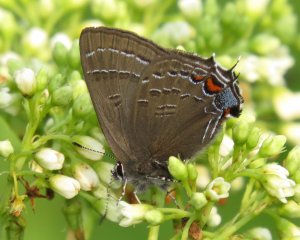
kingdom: Animalia
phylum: Arthropoda
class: Insecta
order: Lepidoptera
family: Lycaenidae
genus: Satyrium
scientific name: Satyrium calanus
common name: Banded Hairstreak
